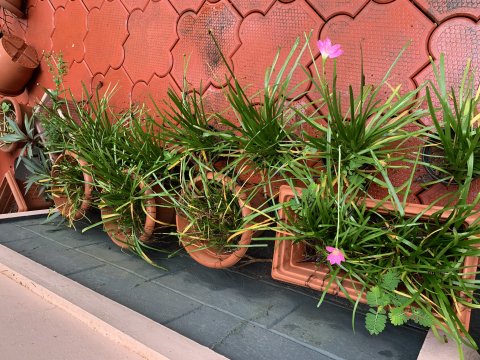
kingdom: Animalia
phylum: Arthropoda
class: Insecta
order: Lepidoptera
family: Nymphalidae
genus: Danaus
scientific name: Danaus plexippus
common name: Monarch
